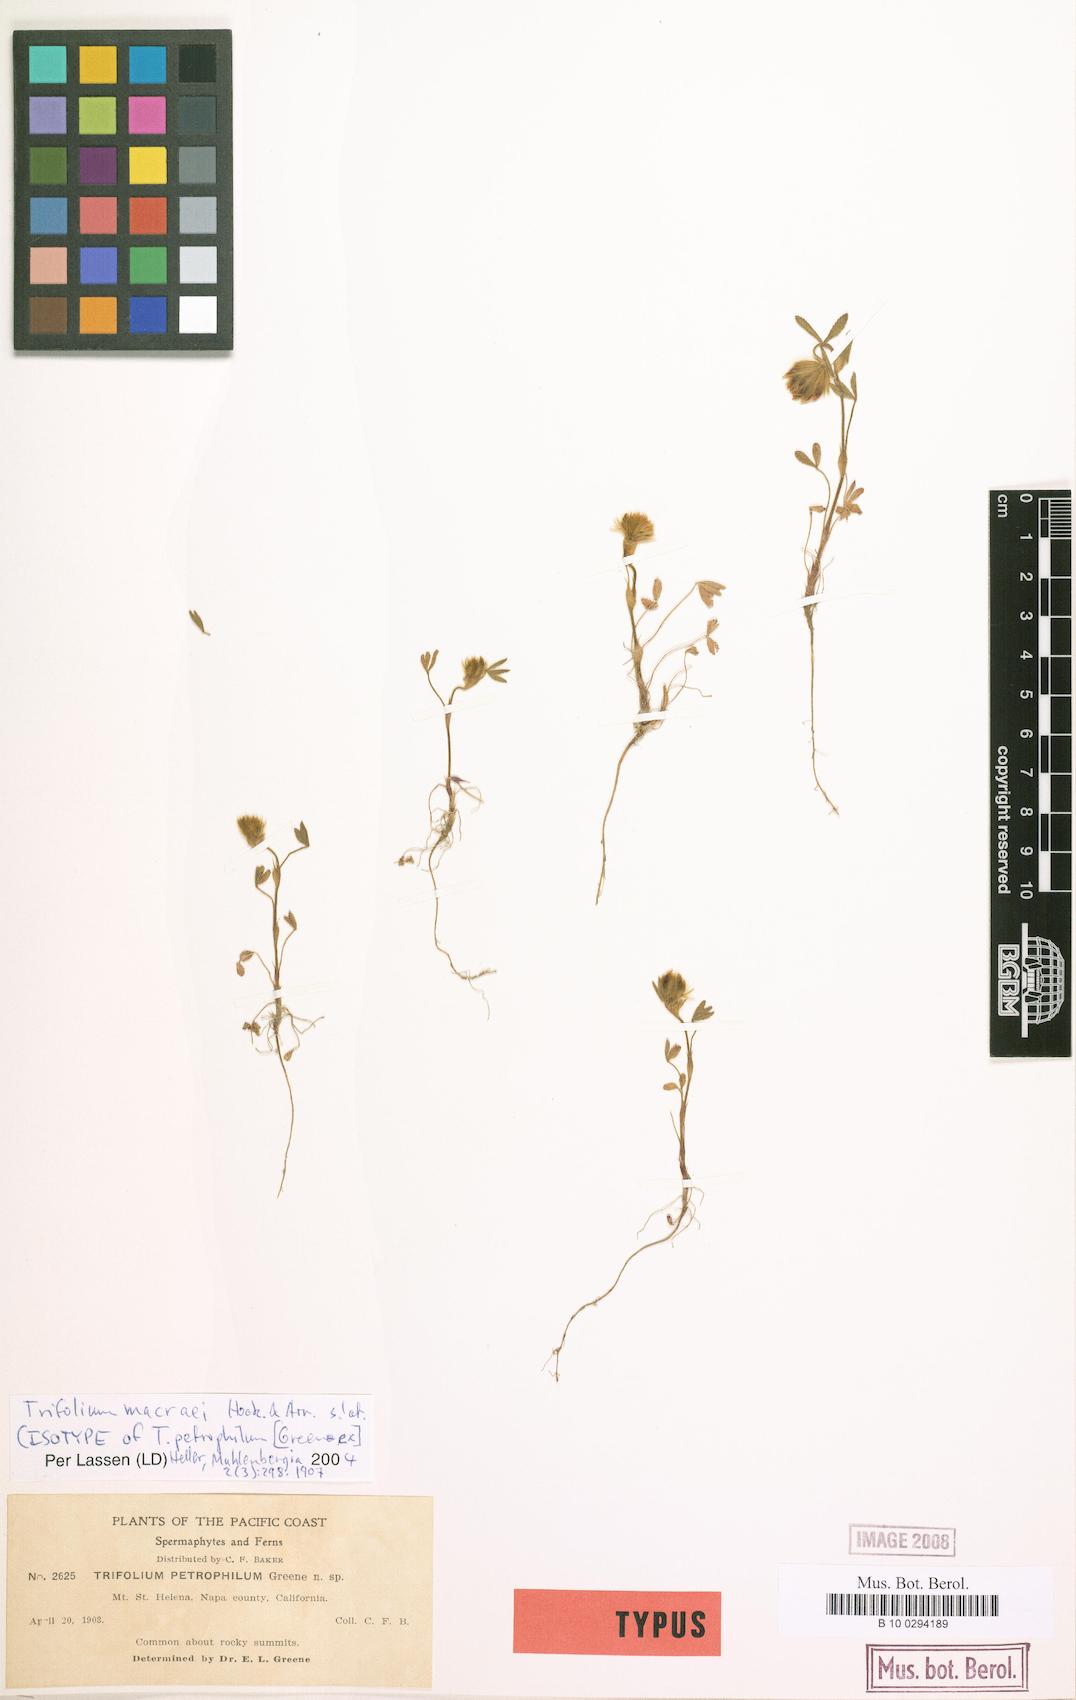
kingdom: Plantae
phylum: Tracheophyta
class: Magnoliopsida
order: Fabales
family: Fabaceae
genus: Trifolium
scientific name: Trifolium dichotomum
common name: Branched indian clover
